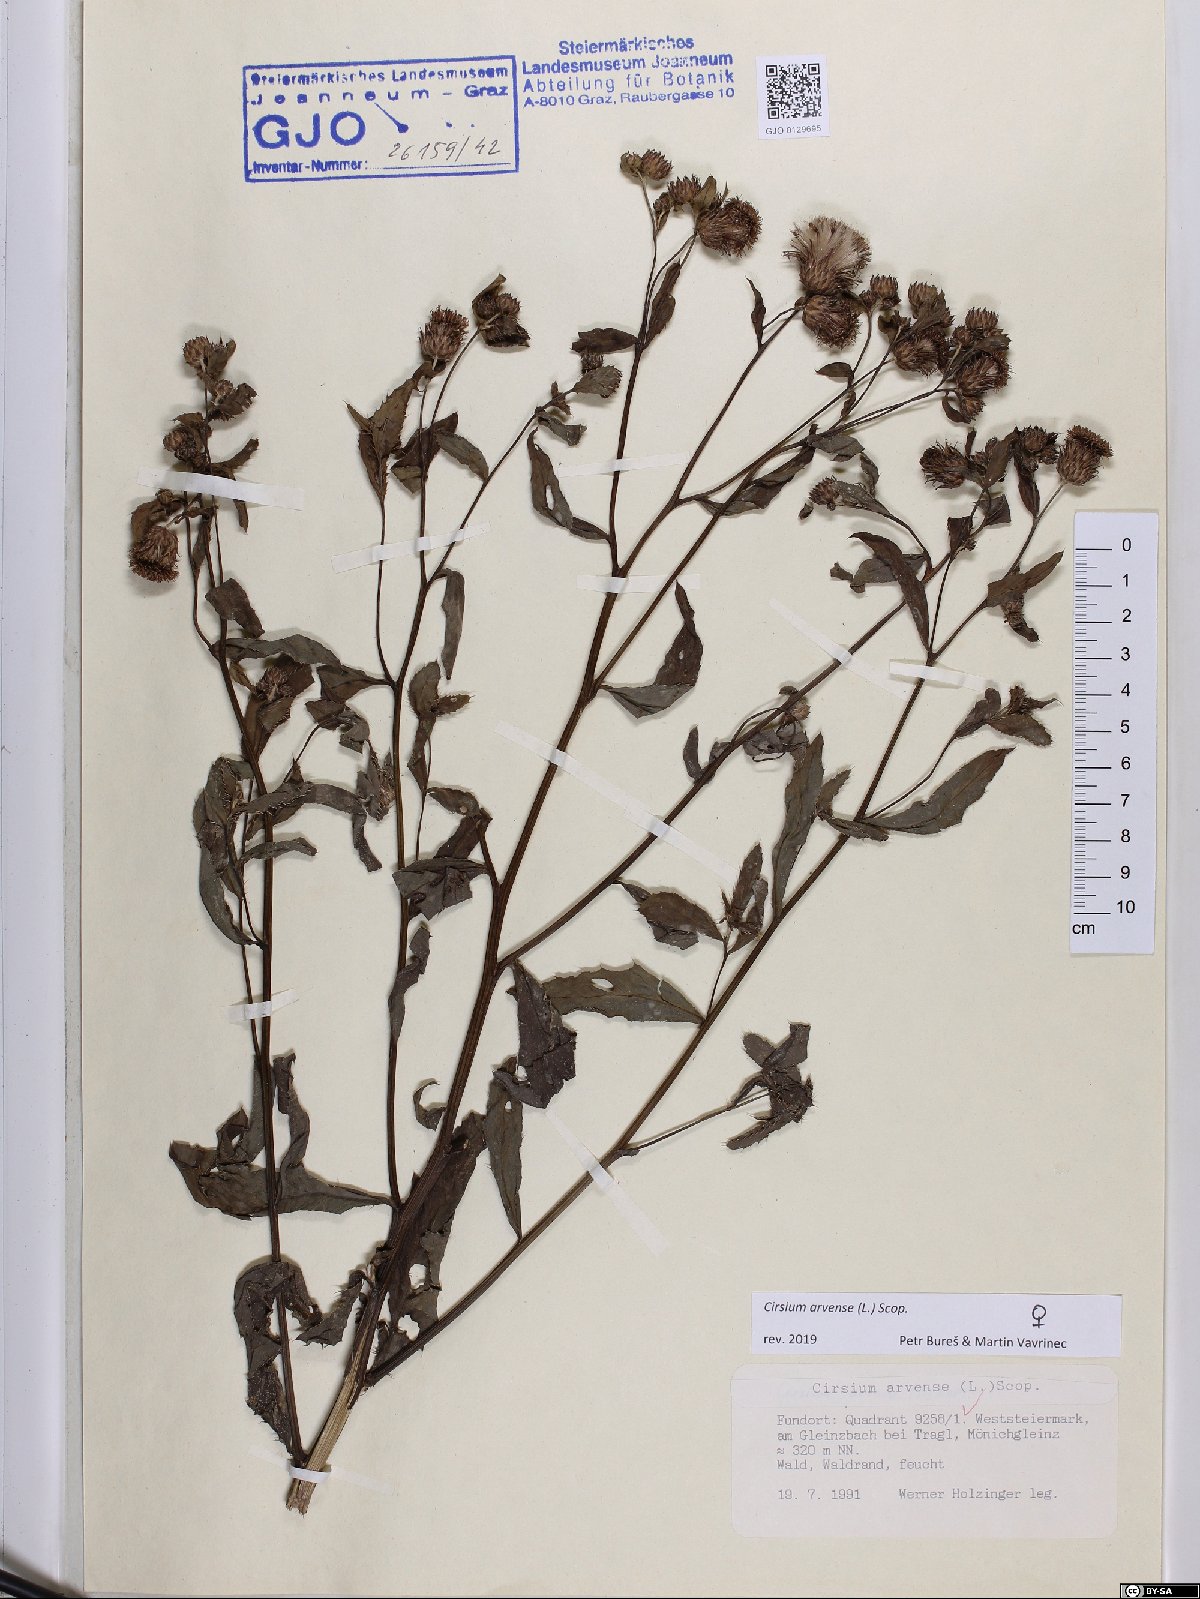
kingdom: Plantae
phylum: Tracheophyta
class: Magnoliopsida
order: Asterales
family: Asteraceae
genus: Cirsium
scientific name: Cirsium arvense
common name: Creeping thistle
